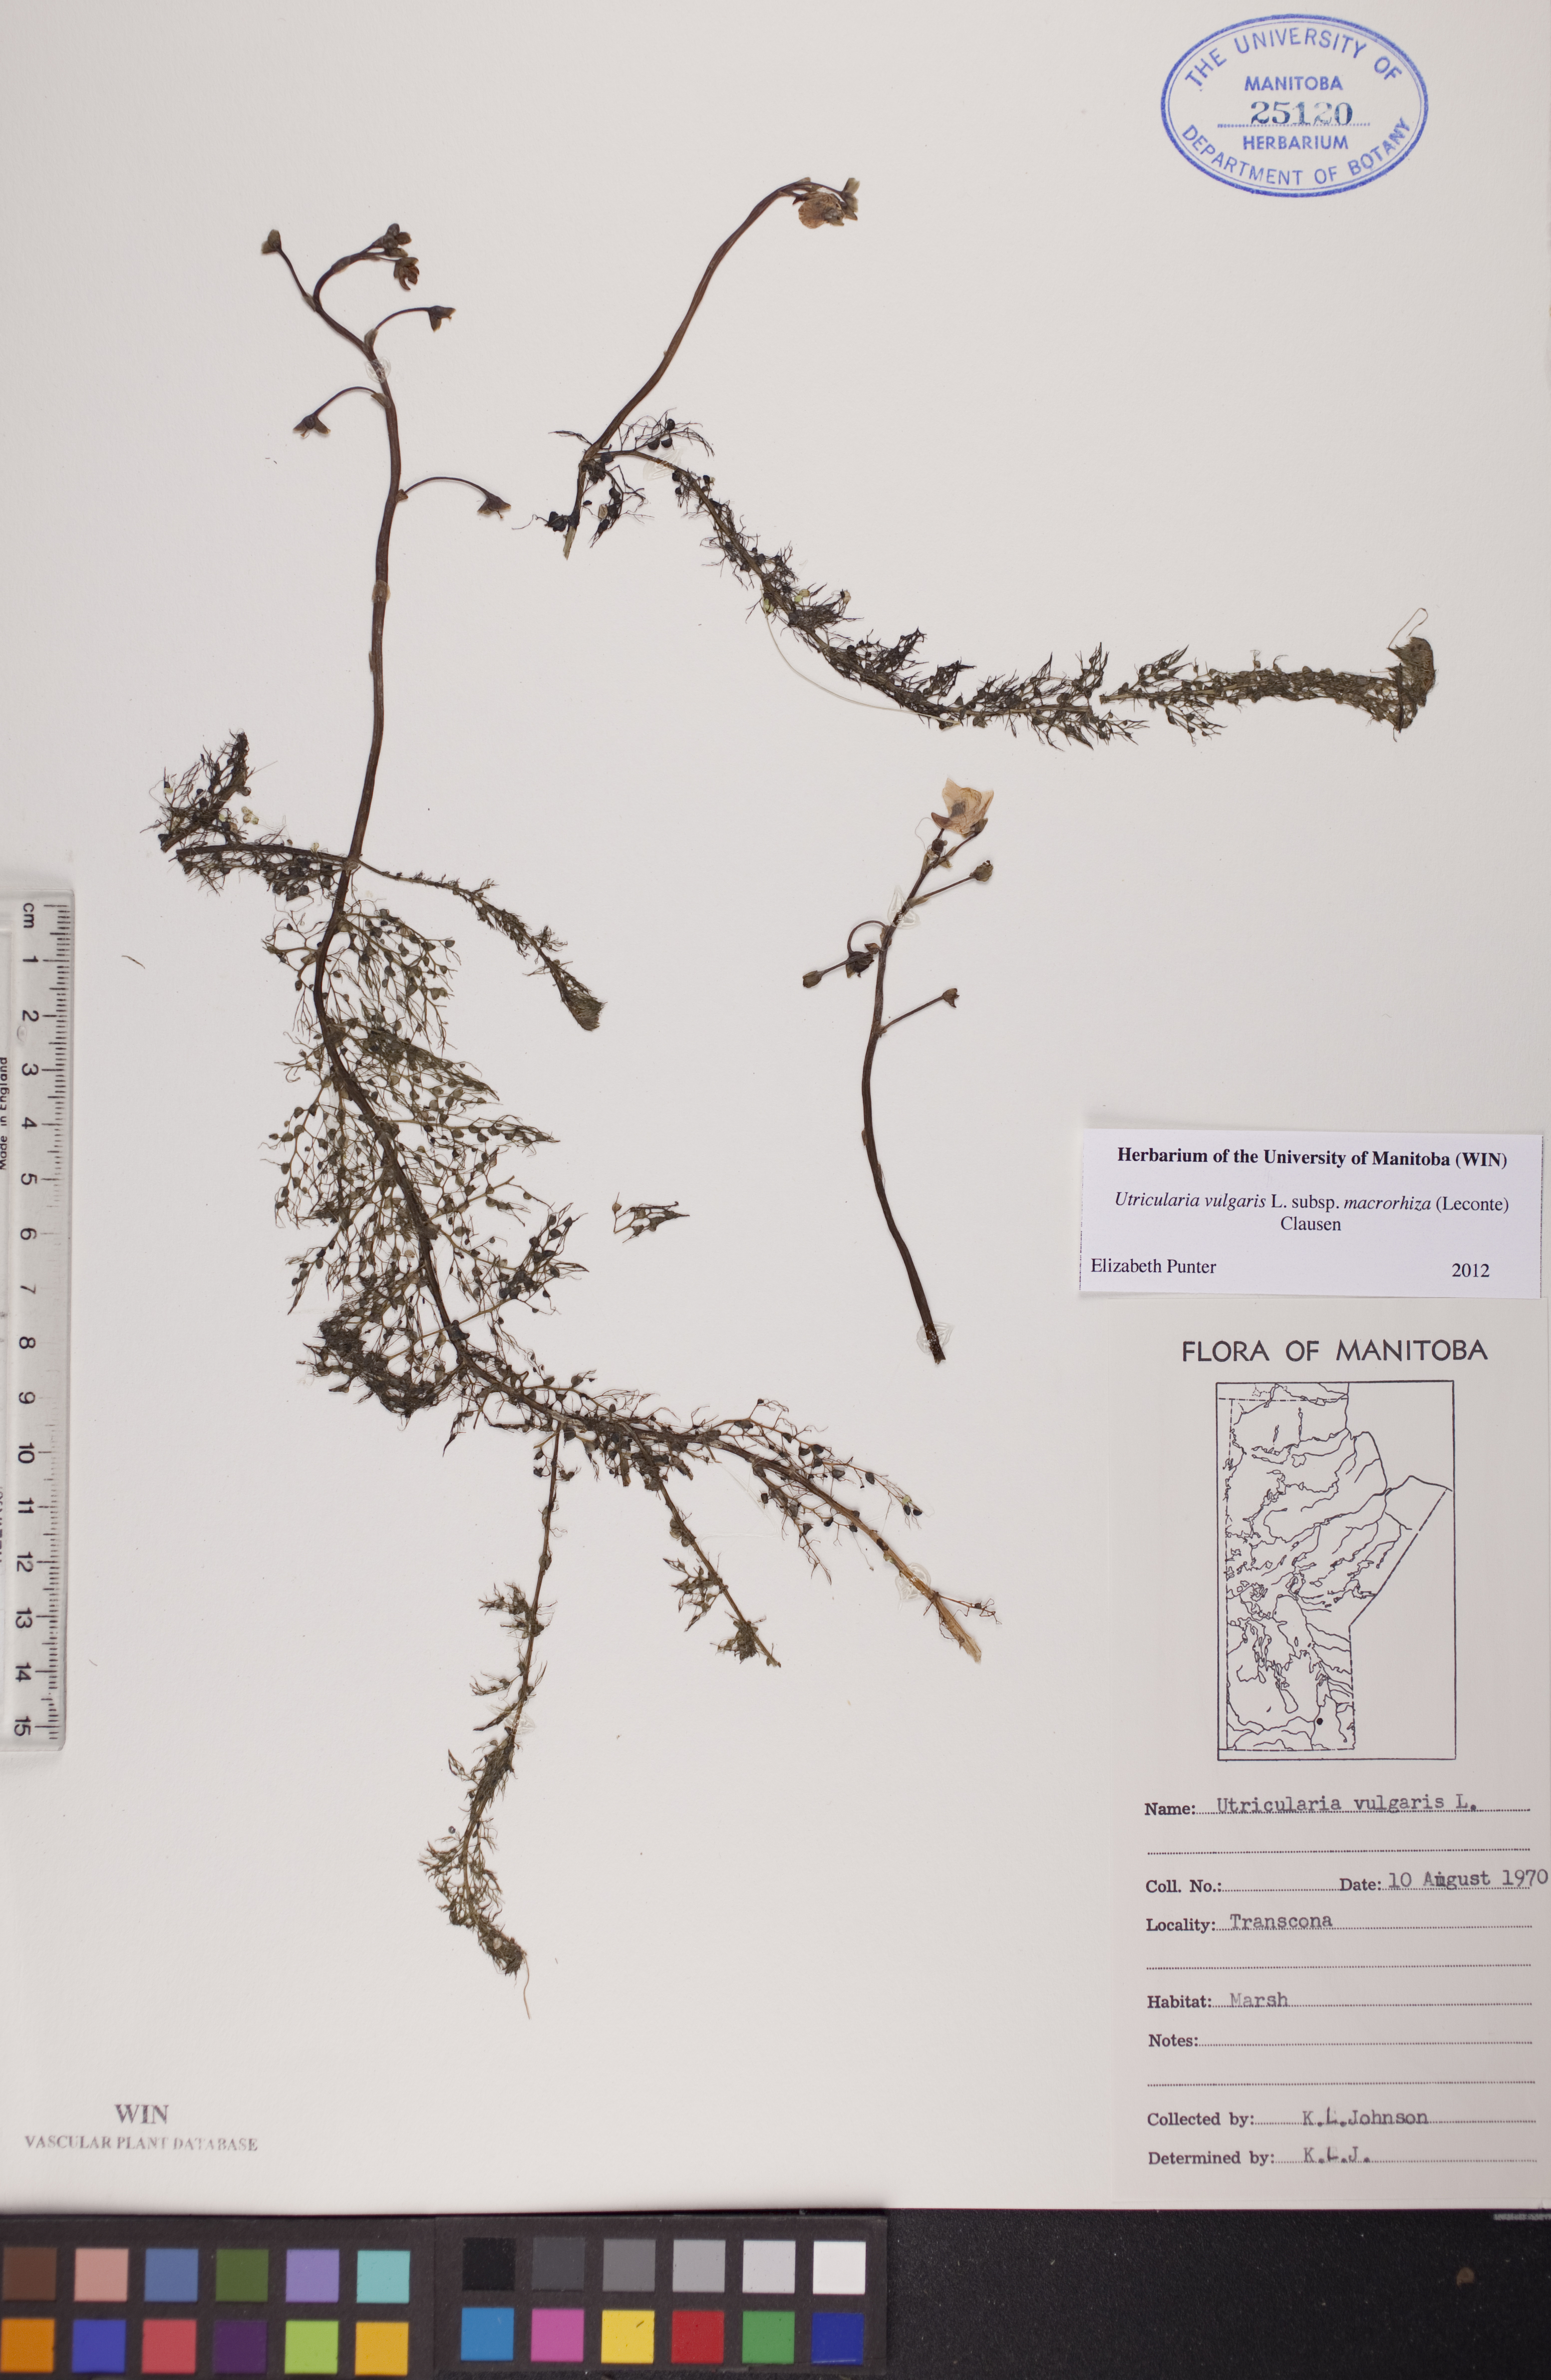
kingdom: Plantae
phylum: Tracheophyta
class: Magnoliopsida
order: Lamiales
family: Lentibulariaceae
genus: Utricularia
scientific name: Utricularia macrorhiza
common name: Common bladderwort
